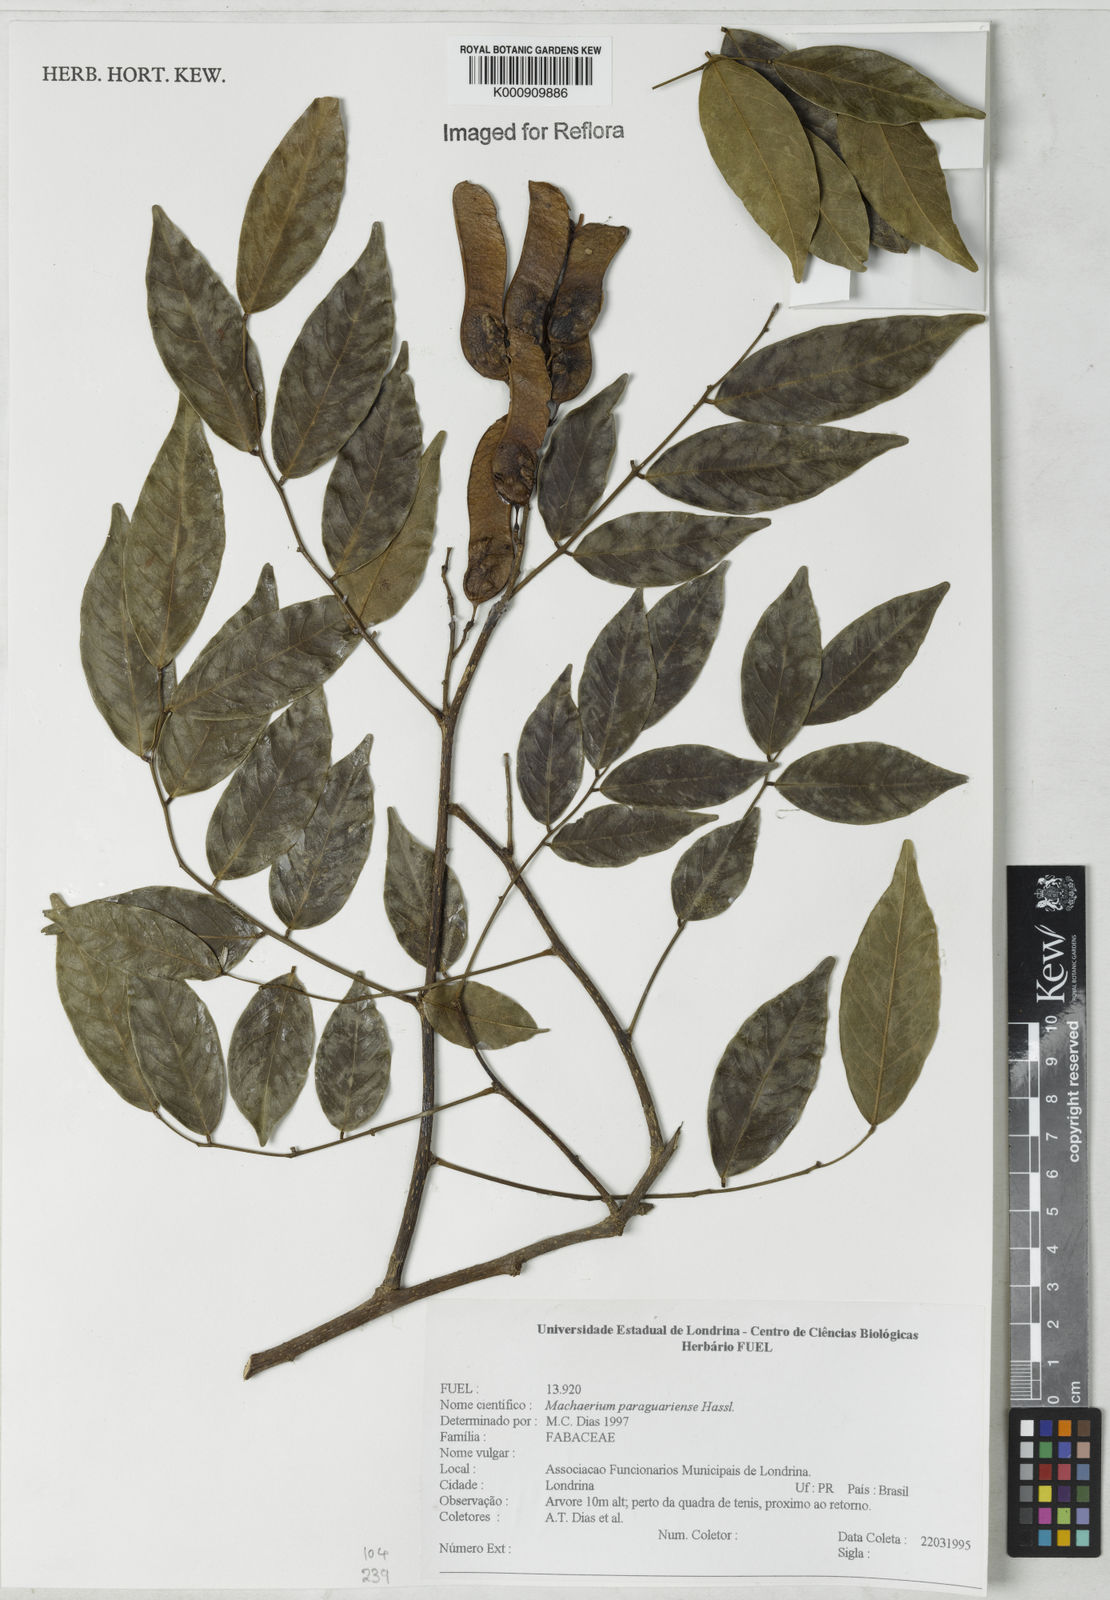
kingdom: Plantae
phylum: Tracheophyta
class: Magnoliopsida
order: Fabales
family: Fabaceae
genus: Machaerium
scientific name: Machaerium oblongifolium
